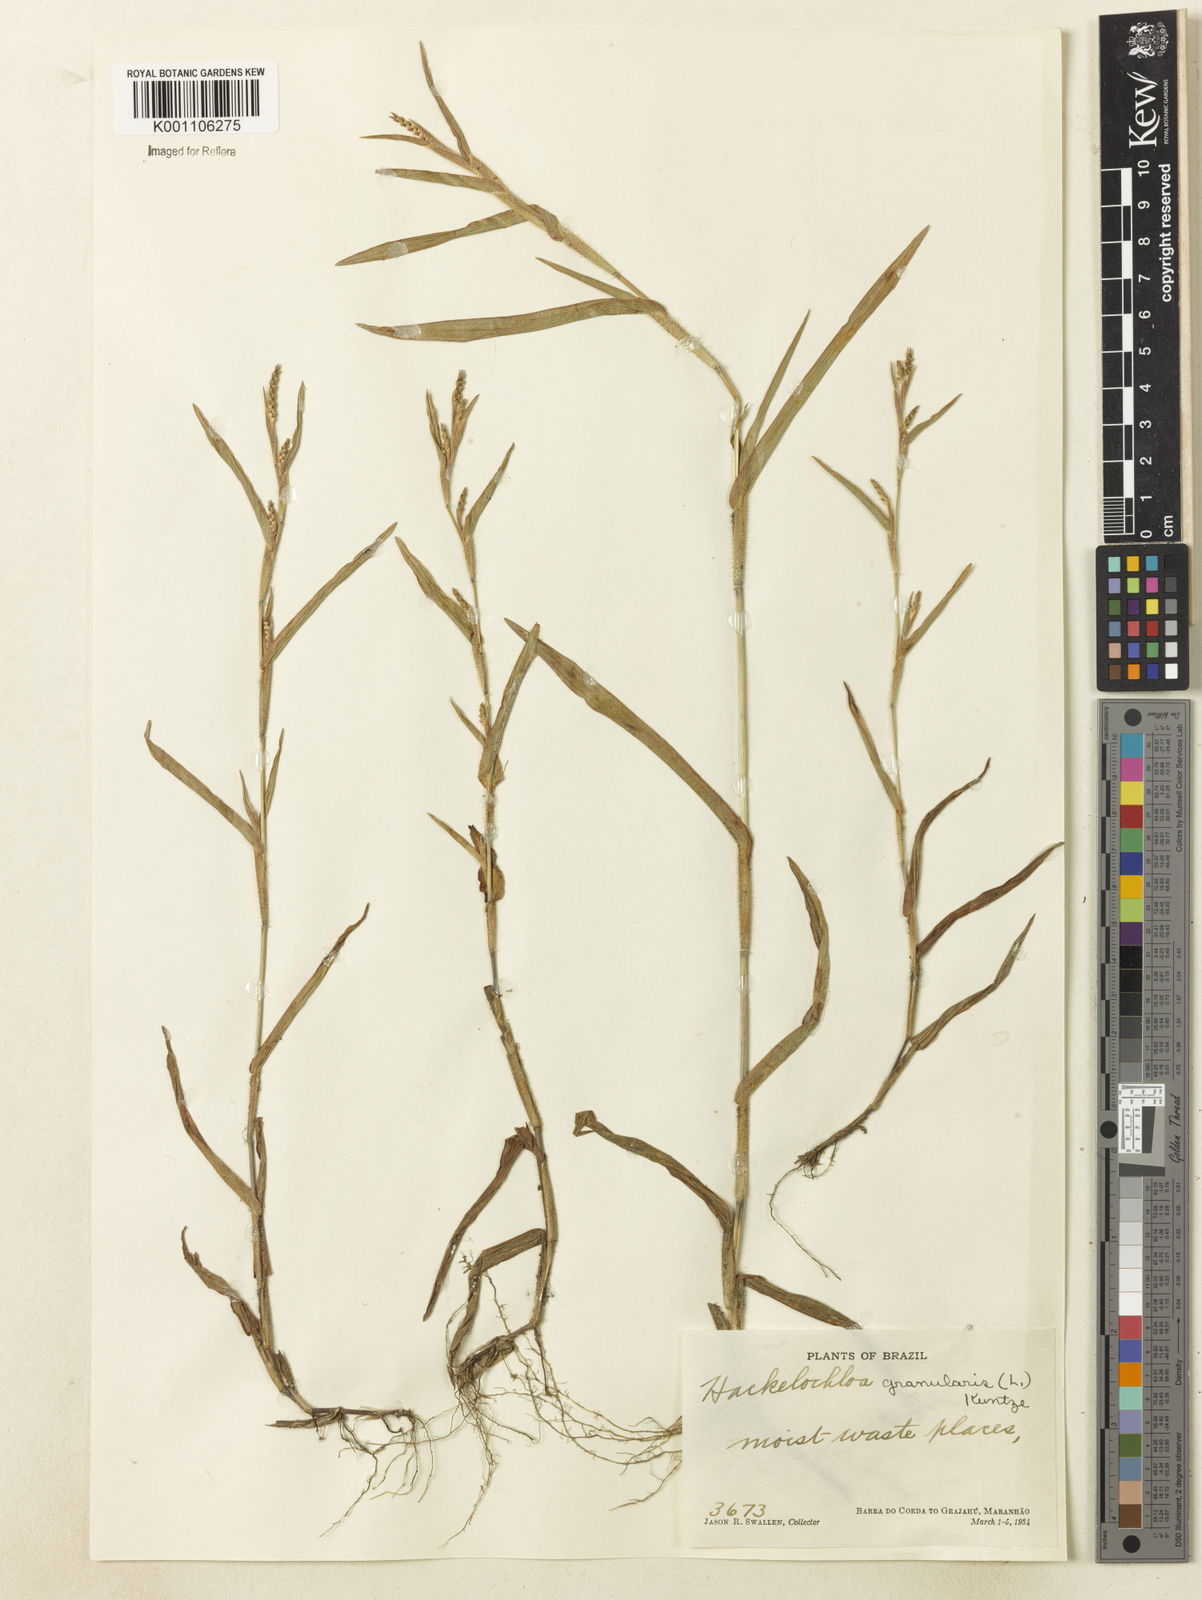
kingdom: Plantae
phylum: Tracheophyta
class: Liliopsida
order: Poales
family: Poaceae
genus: Hackelochloa
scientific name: Hackelochloa granularis
